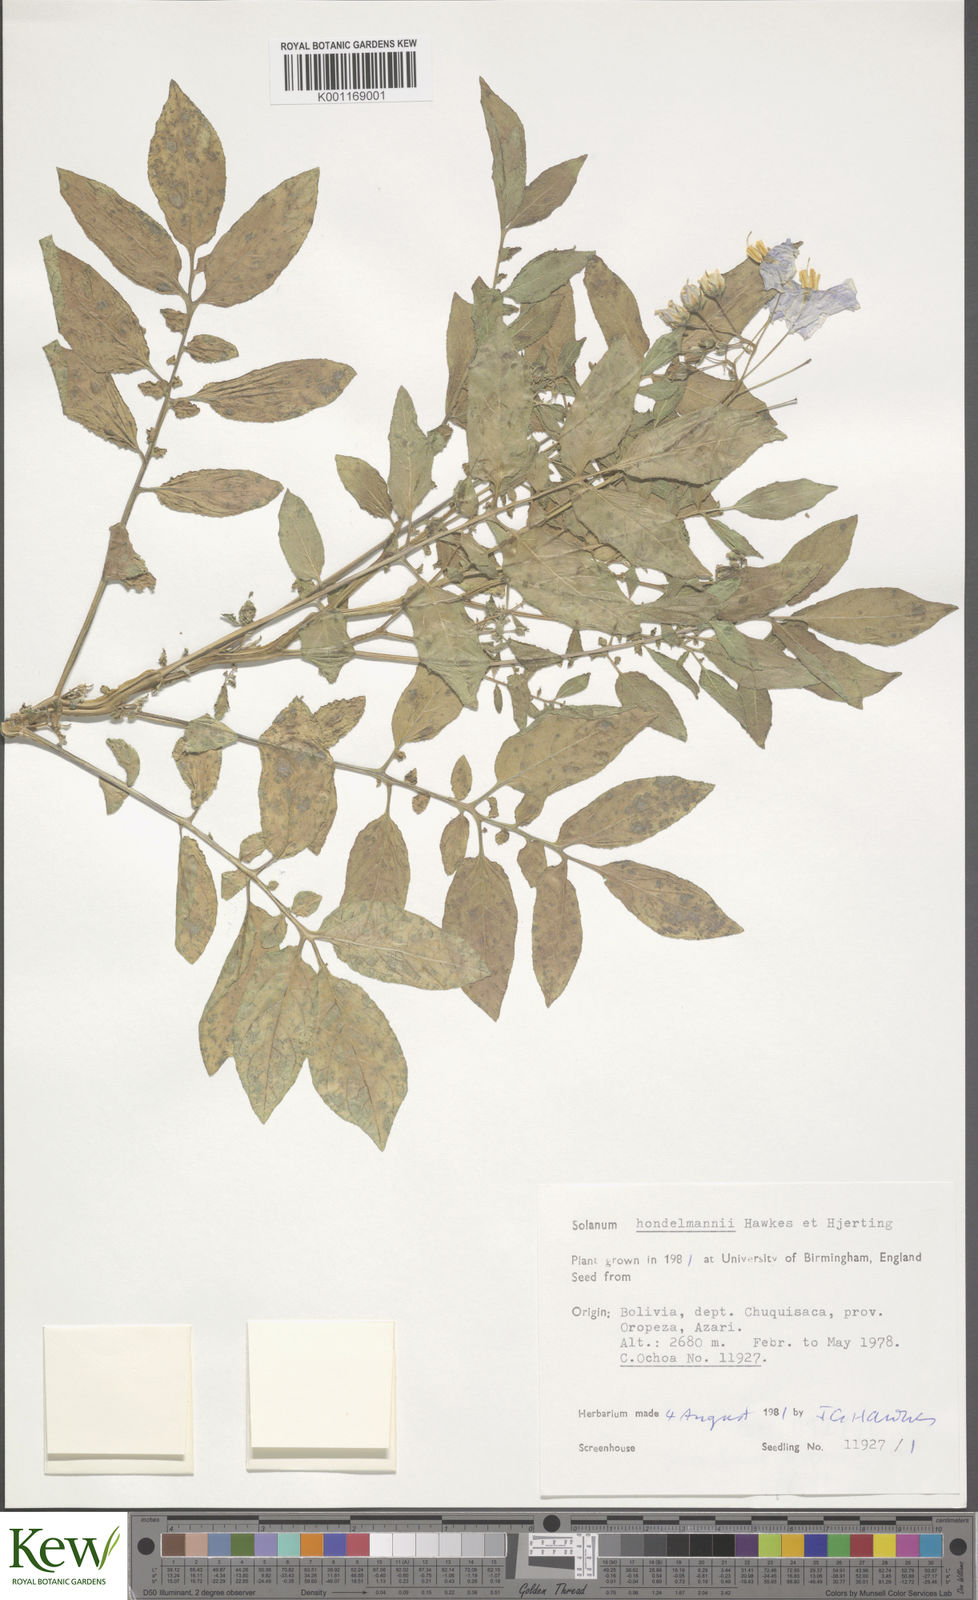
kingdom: Plantae
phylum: Tracheophyta
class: Magnoliopsida
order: Solanales
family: Solanaceae
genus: Solanum
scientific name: Solanum brevicaule
